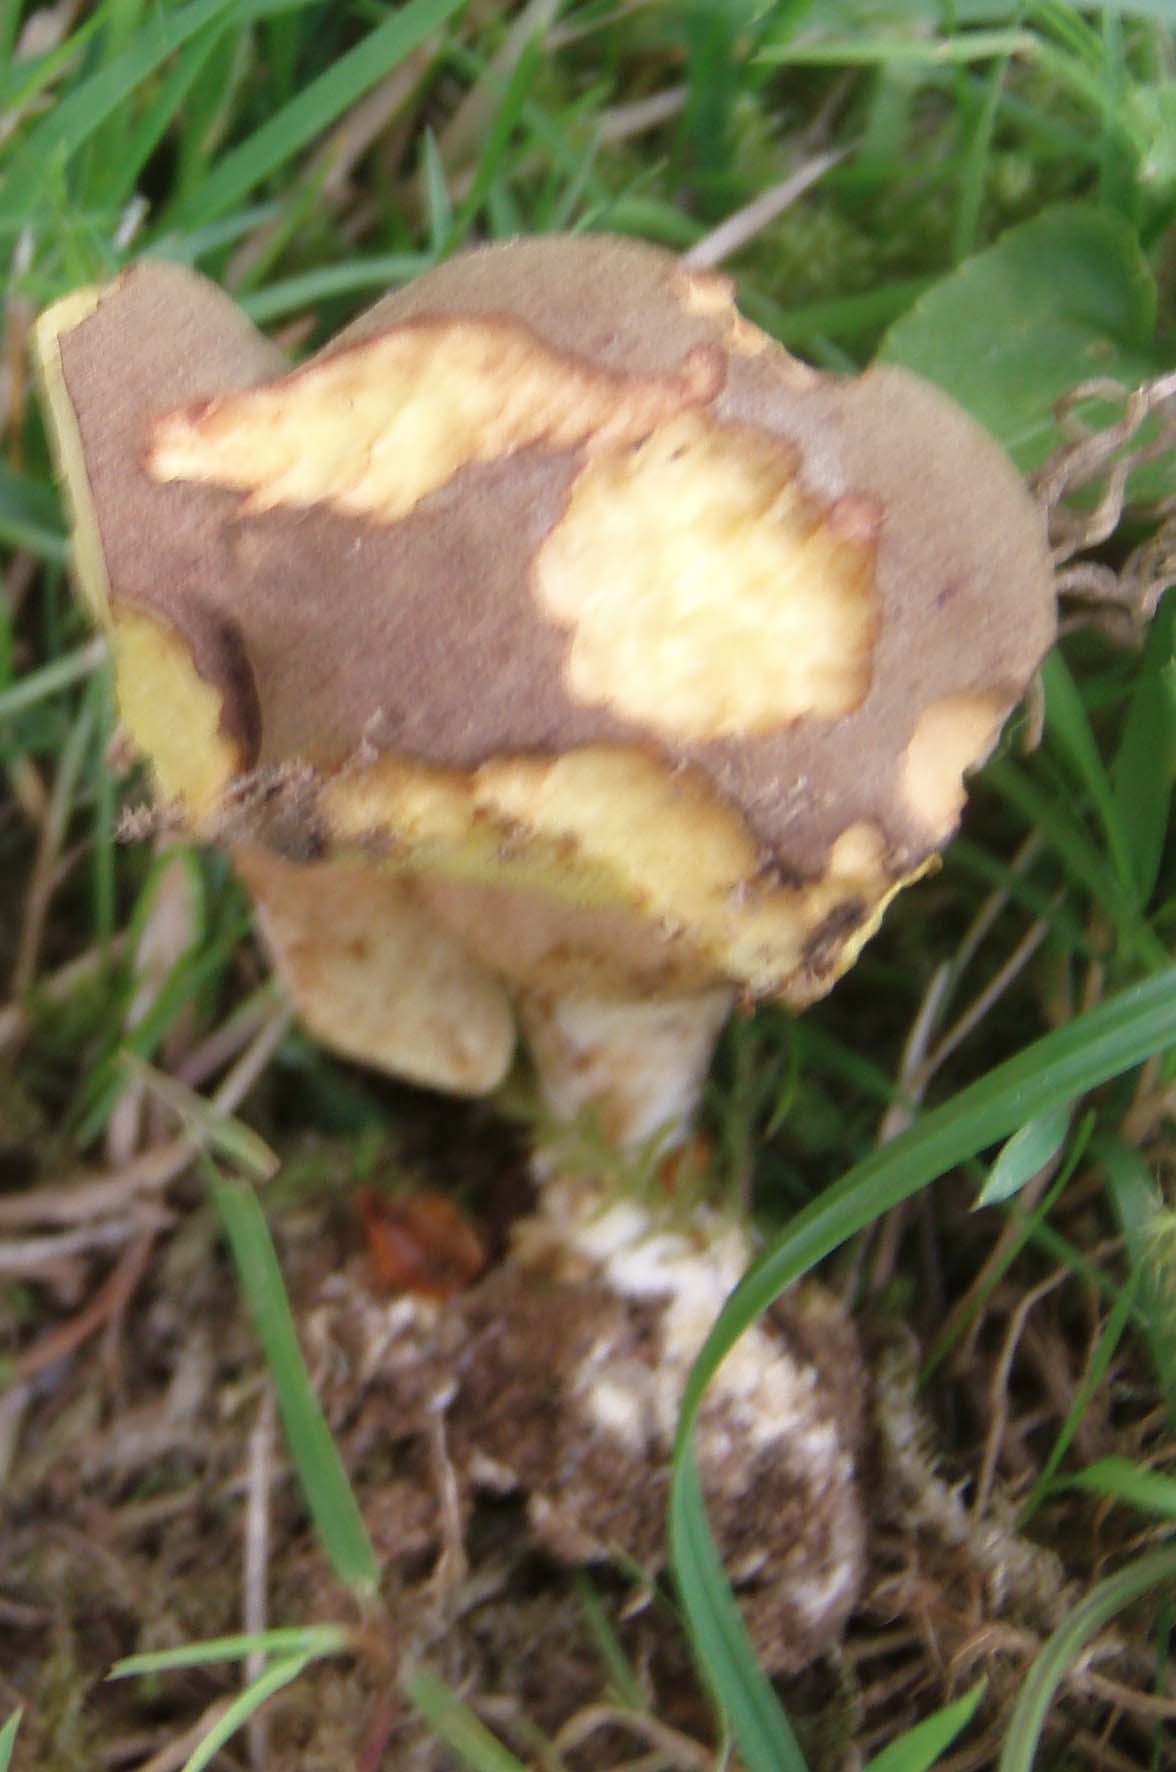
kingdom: Fungi
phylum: Basidiomycota
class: Agaricomycetes
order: Boletales
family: Boletaceae
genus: Xerocomellus
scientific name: Xerocomellus
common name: dværgrørhat
